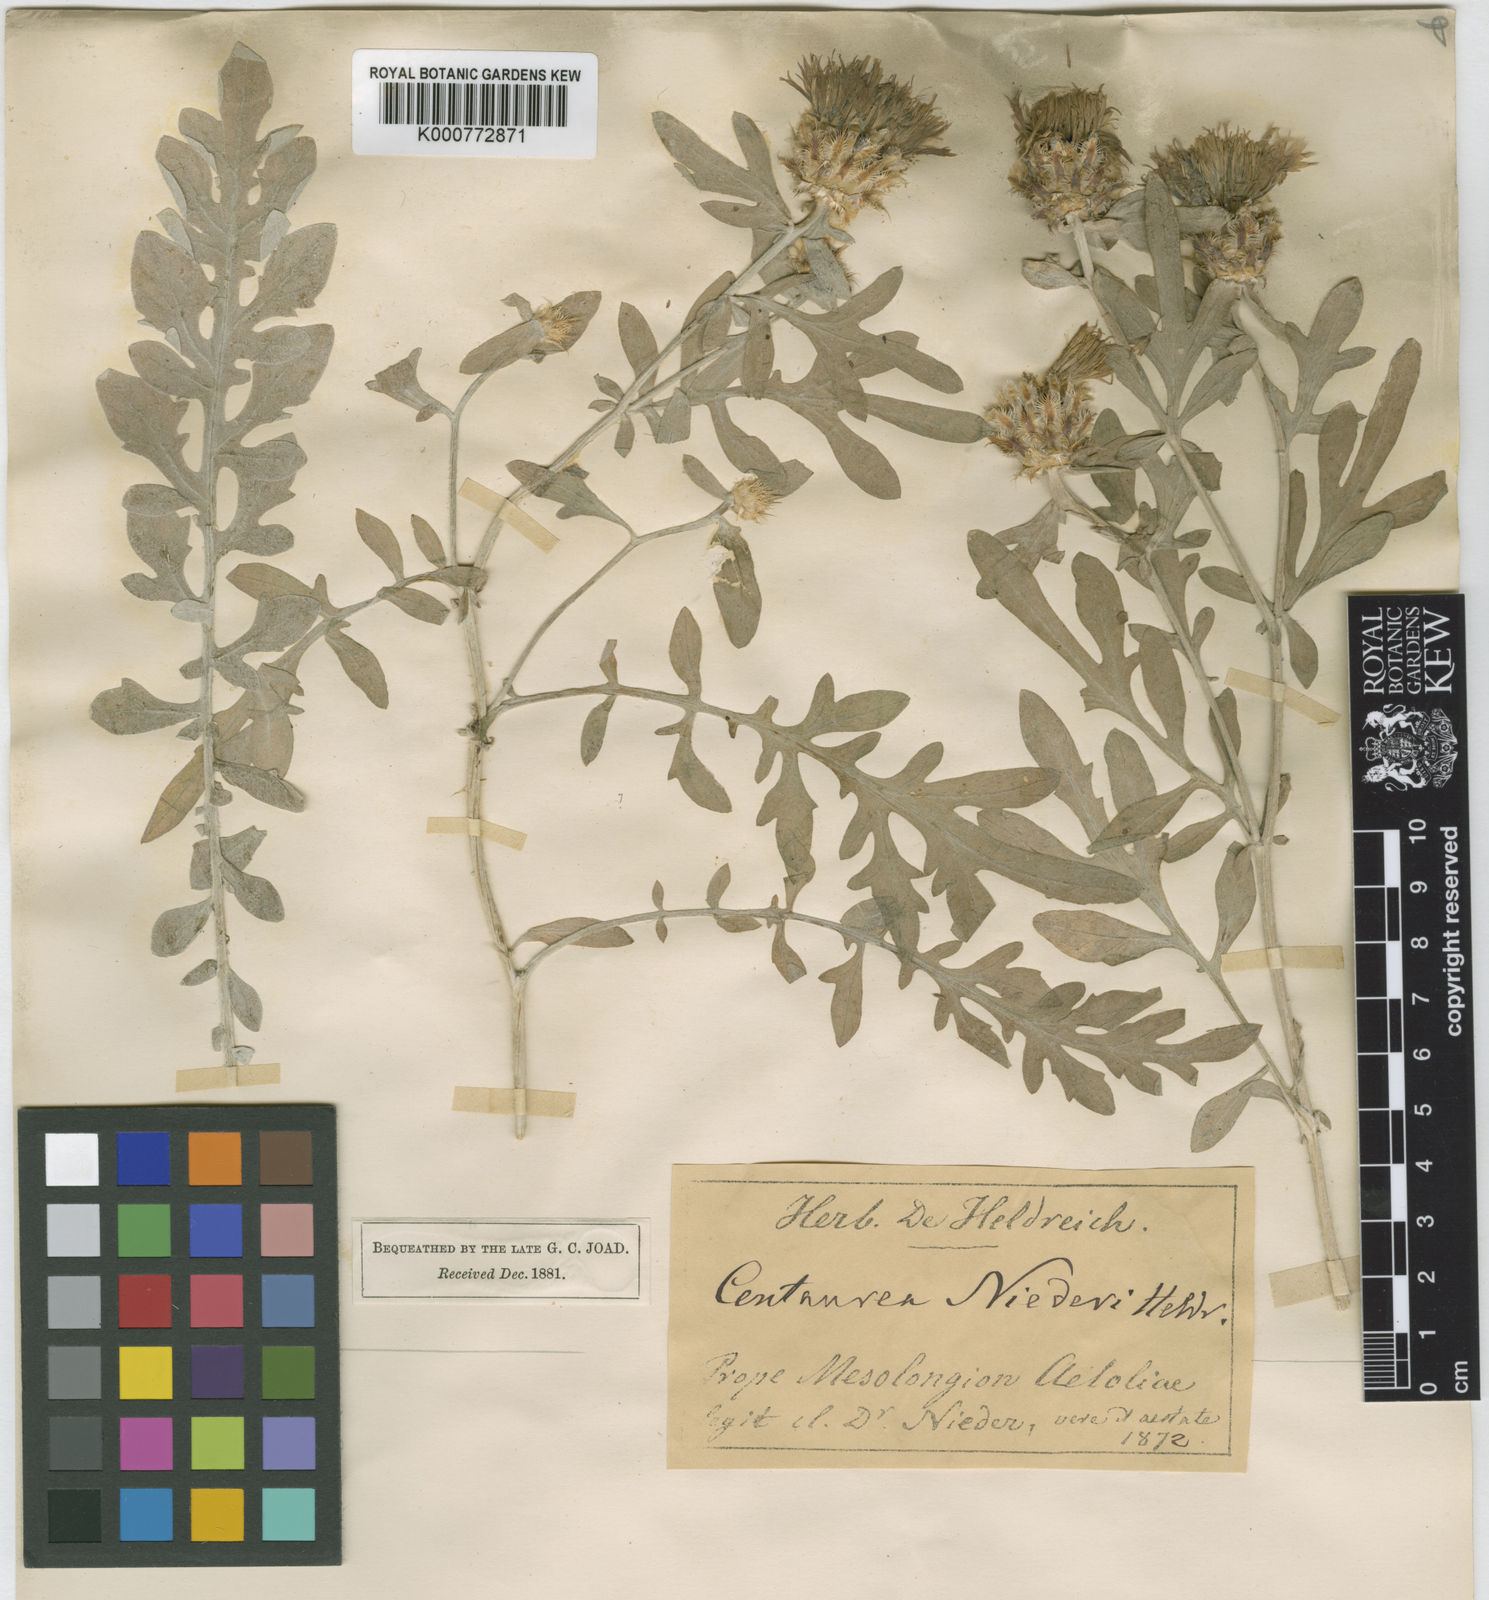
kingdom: Plantae
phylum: Tracheophyta
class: Magnoliopsida
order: Asterales
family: Asteraceae
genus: Centaurea
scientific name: Centaurea niederi
